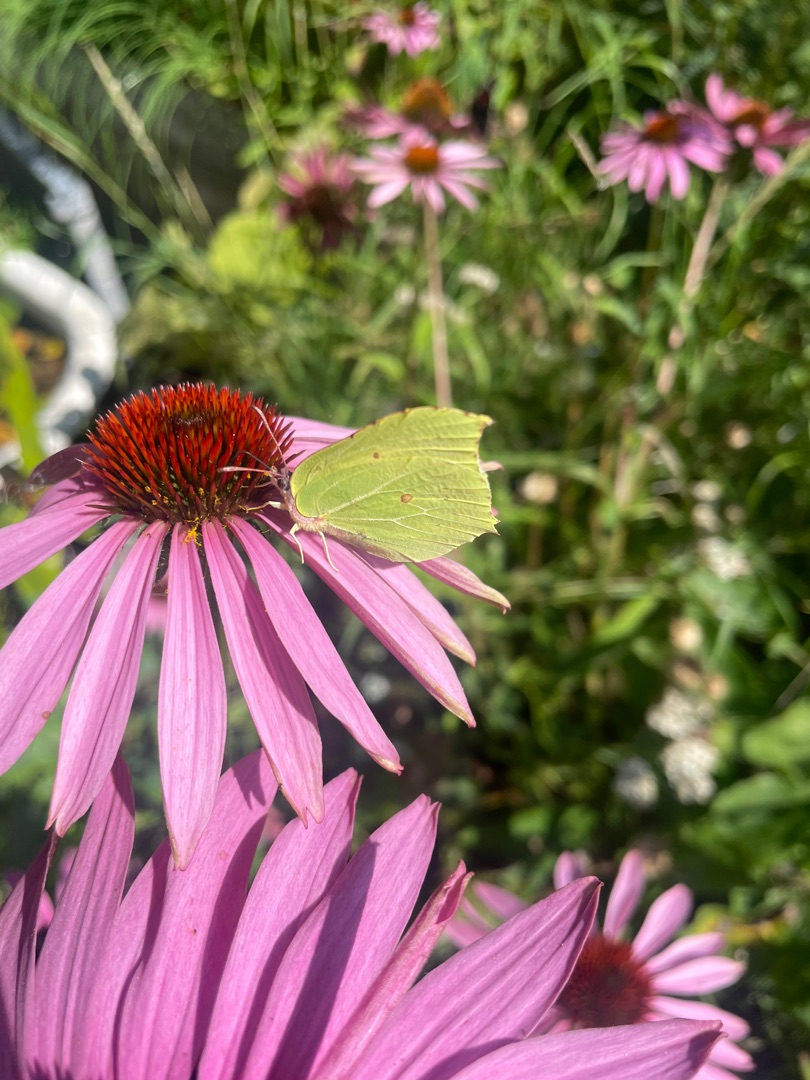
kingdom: Animalia
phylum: Arthropoda
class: Insecta
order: Lepidoptera
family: Pieridae
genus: Gonepteryx
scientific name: Gonepteryx rhamni
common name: Citronsommerfugl
